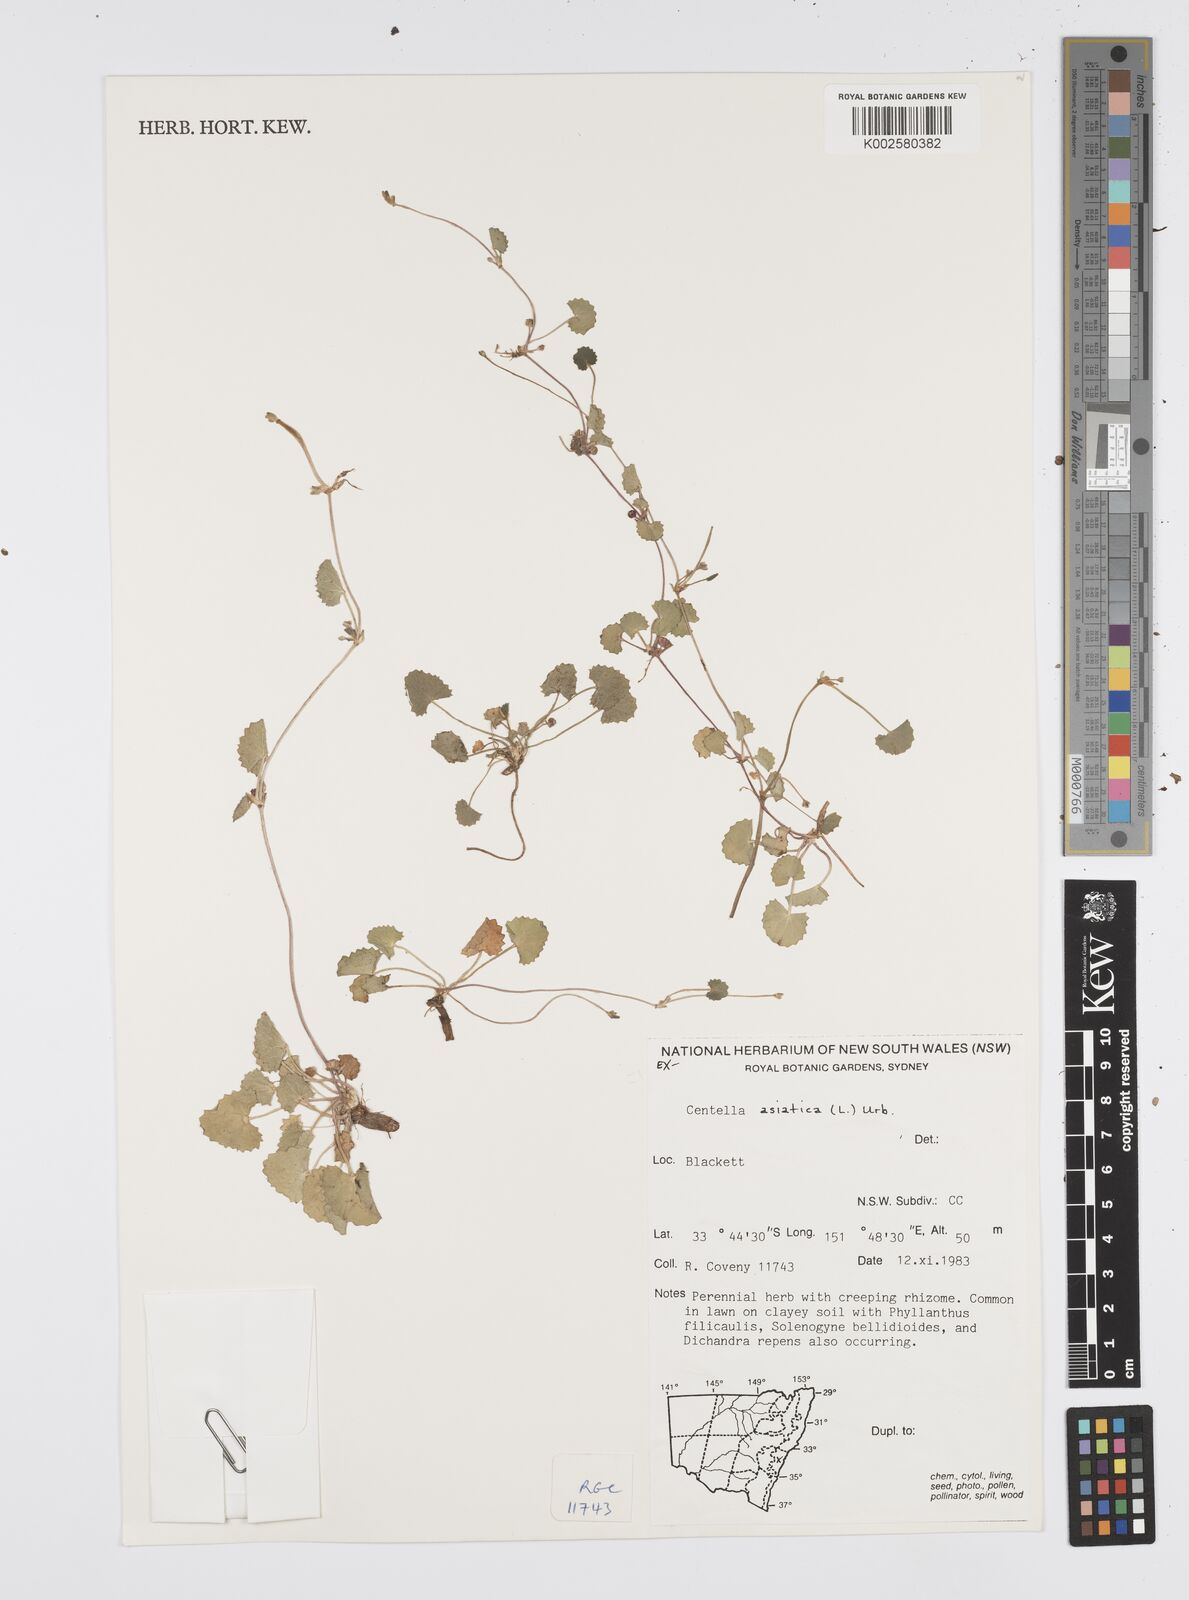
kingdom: Plantae
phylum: Tracheophyta
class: Magnoliopsida
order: Apiales
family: Apiaceae
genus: Centella
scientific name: Centella asiatica
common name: Spadeleaf
